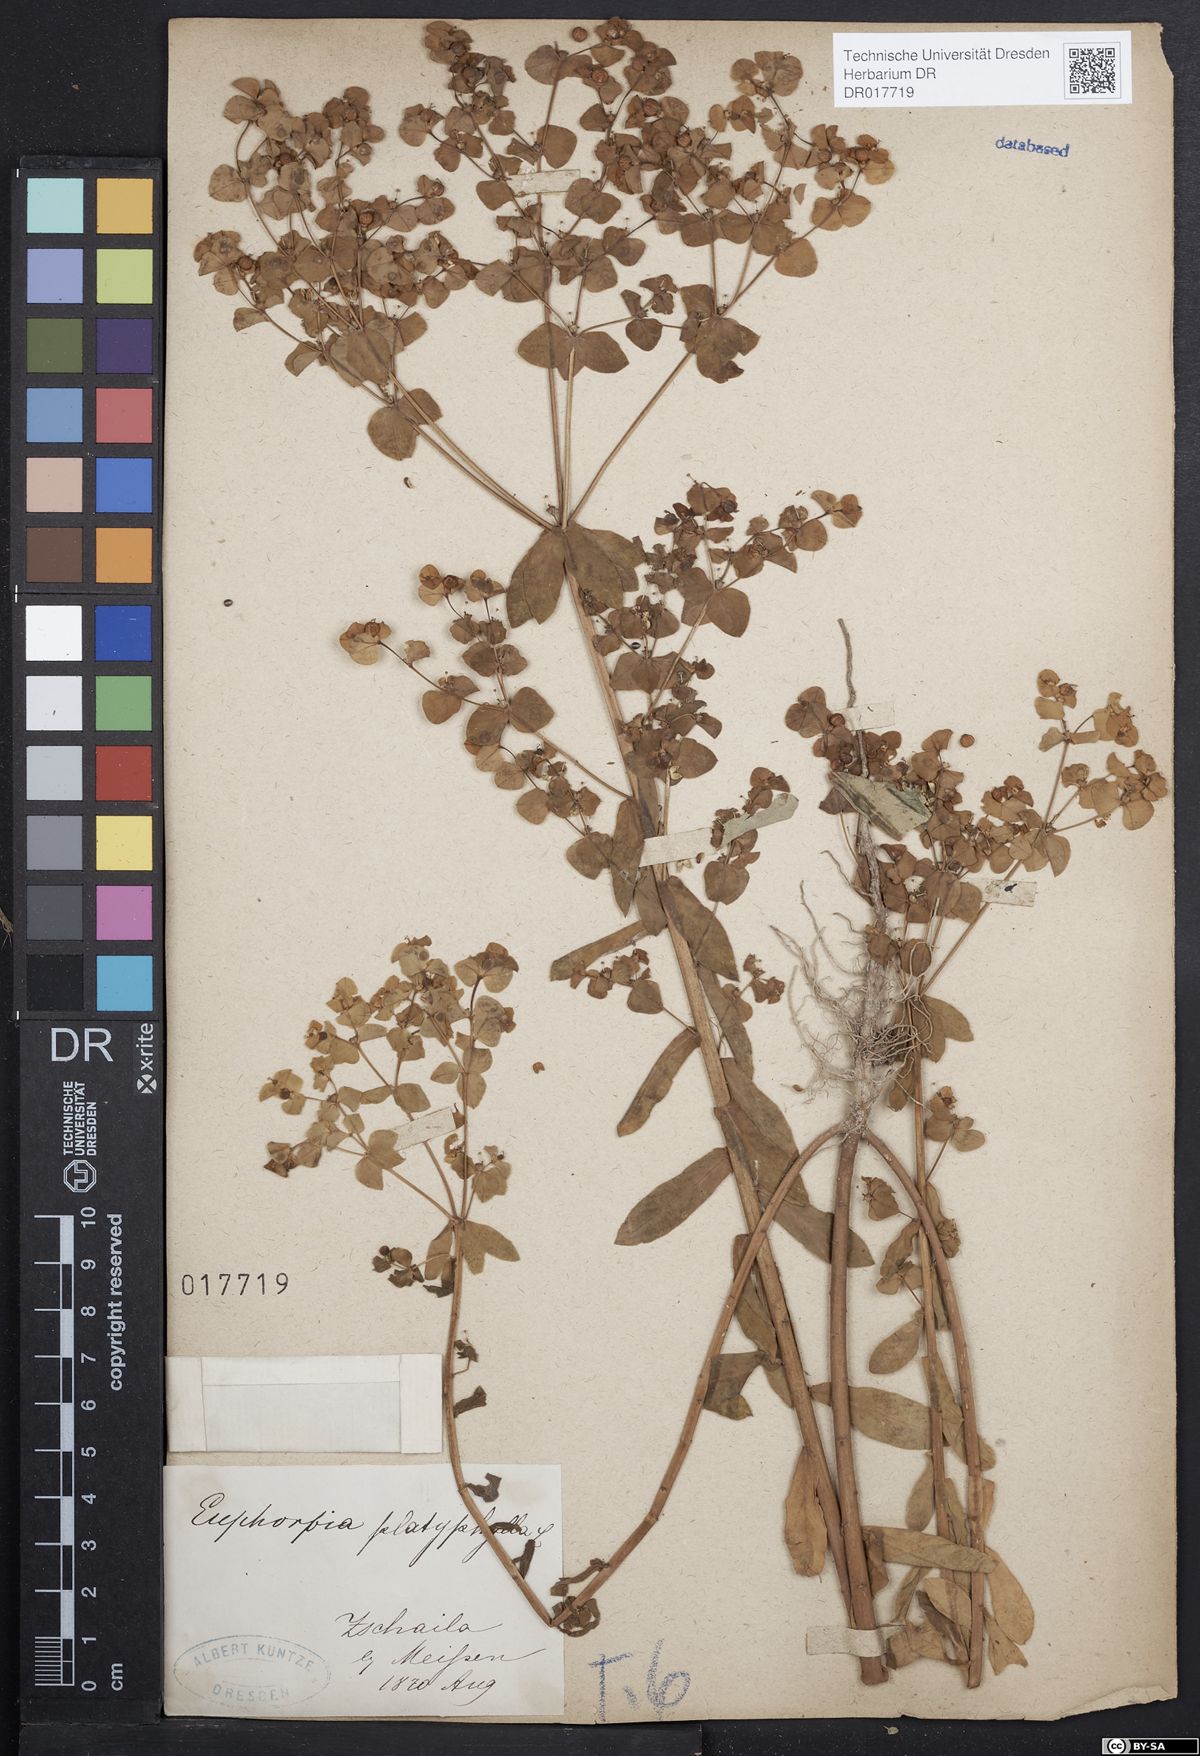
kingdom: Plantae
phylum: Tracheophyta
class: Magnoliopsida
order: Malpighiales
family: Euphorbiaceae
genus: Euphorbia
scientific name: Euphorbia platyphyllos
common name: Broad-leaved spurge
